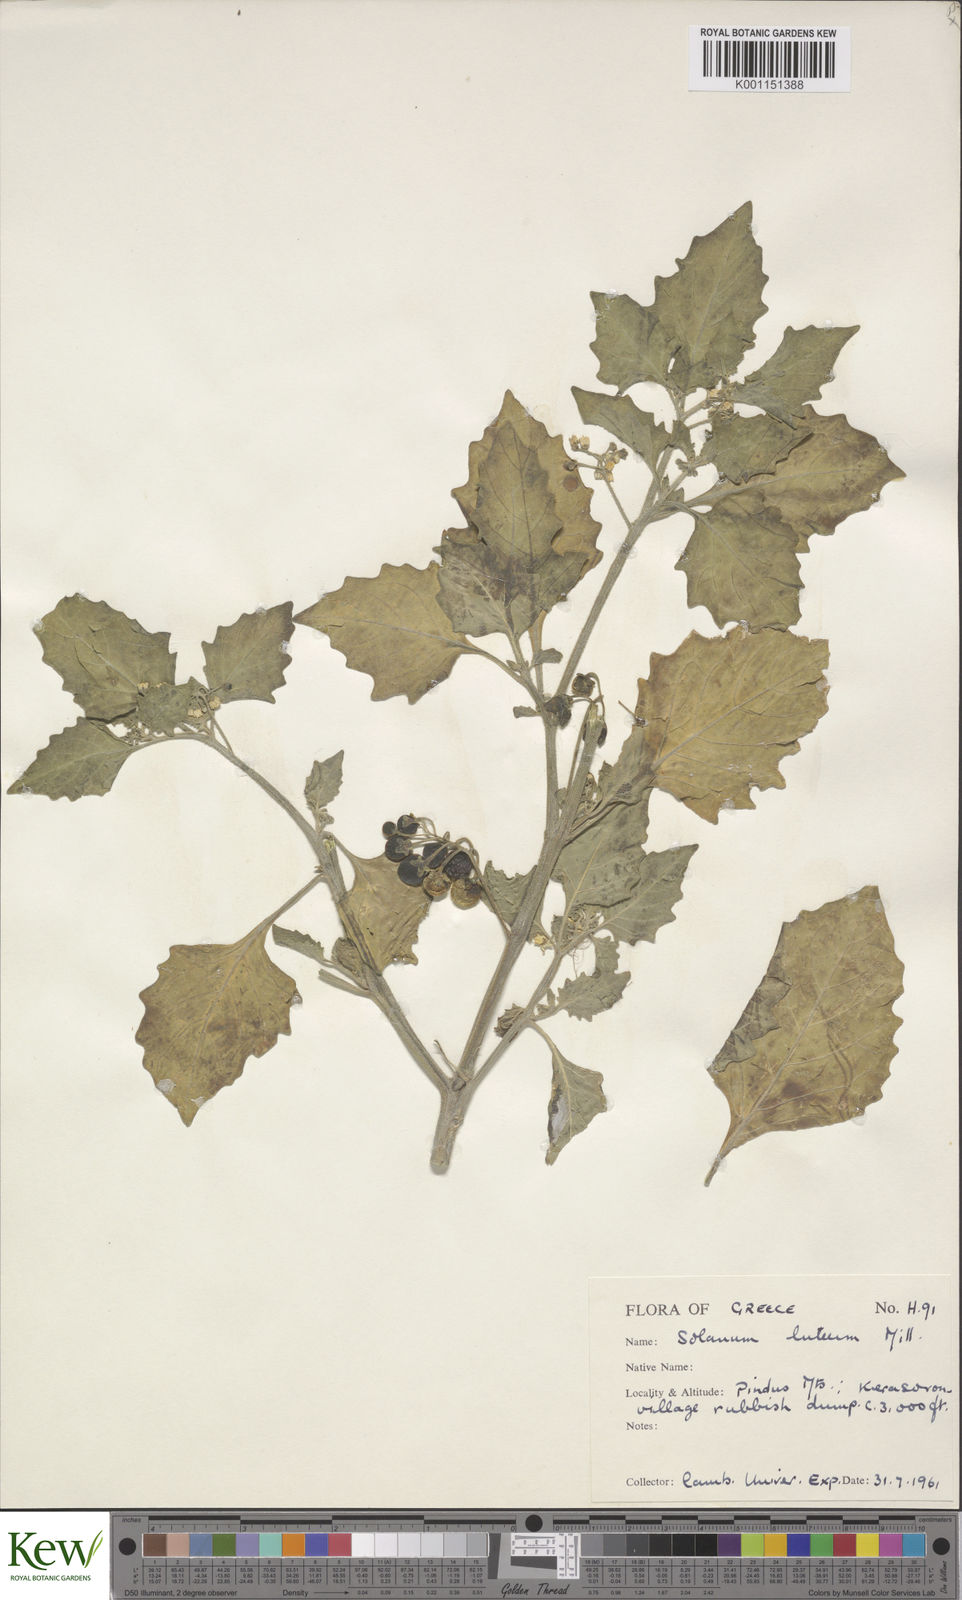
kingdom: Plantae
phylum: Tracheophyta
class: Magnoliopsida
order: Solanales
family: Solanaceae
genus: Solanum
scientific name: Solanum villosum
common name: Red nightshade
